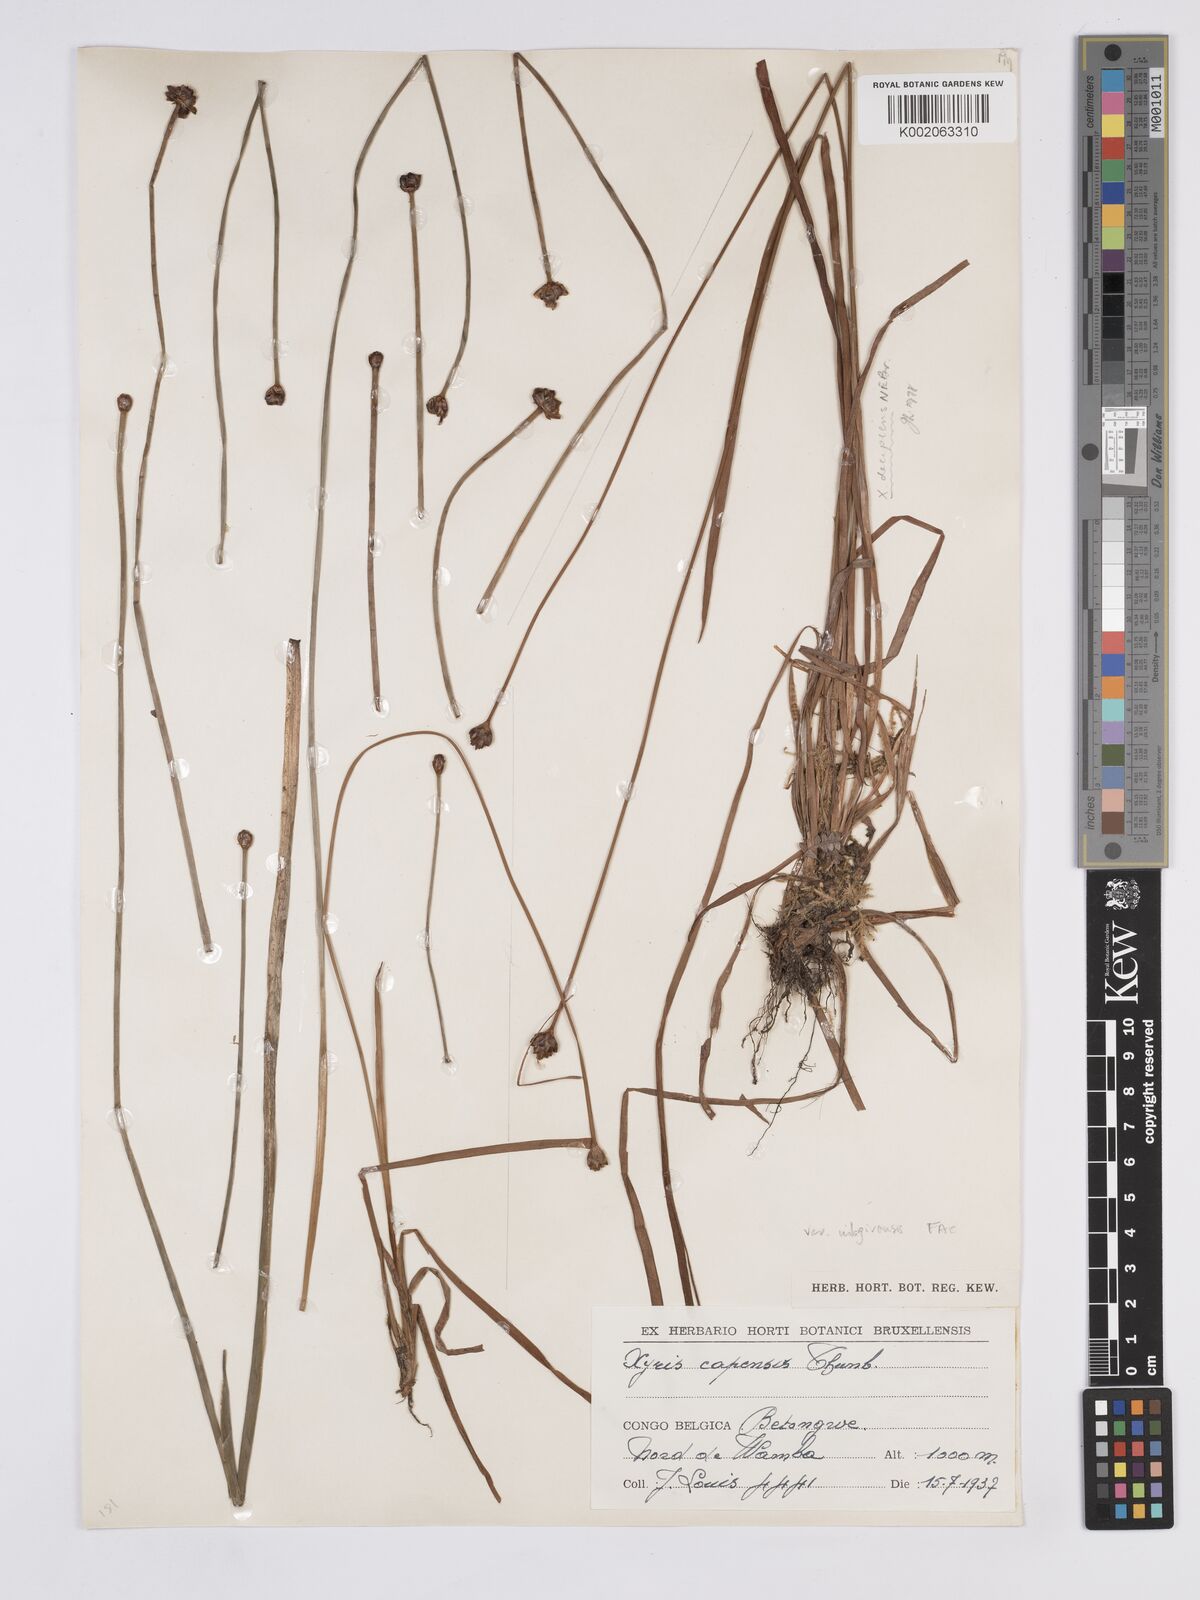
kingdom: Plantae
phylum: Tracheophyta
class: Liliopsida
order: Poales
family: Xyridaceae
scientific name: Xyridaceae
